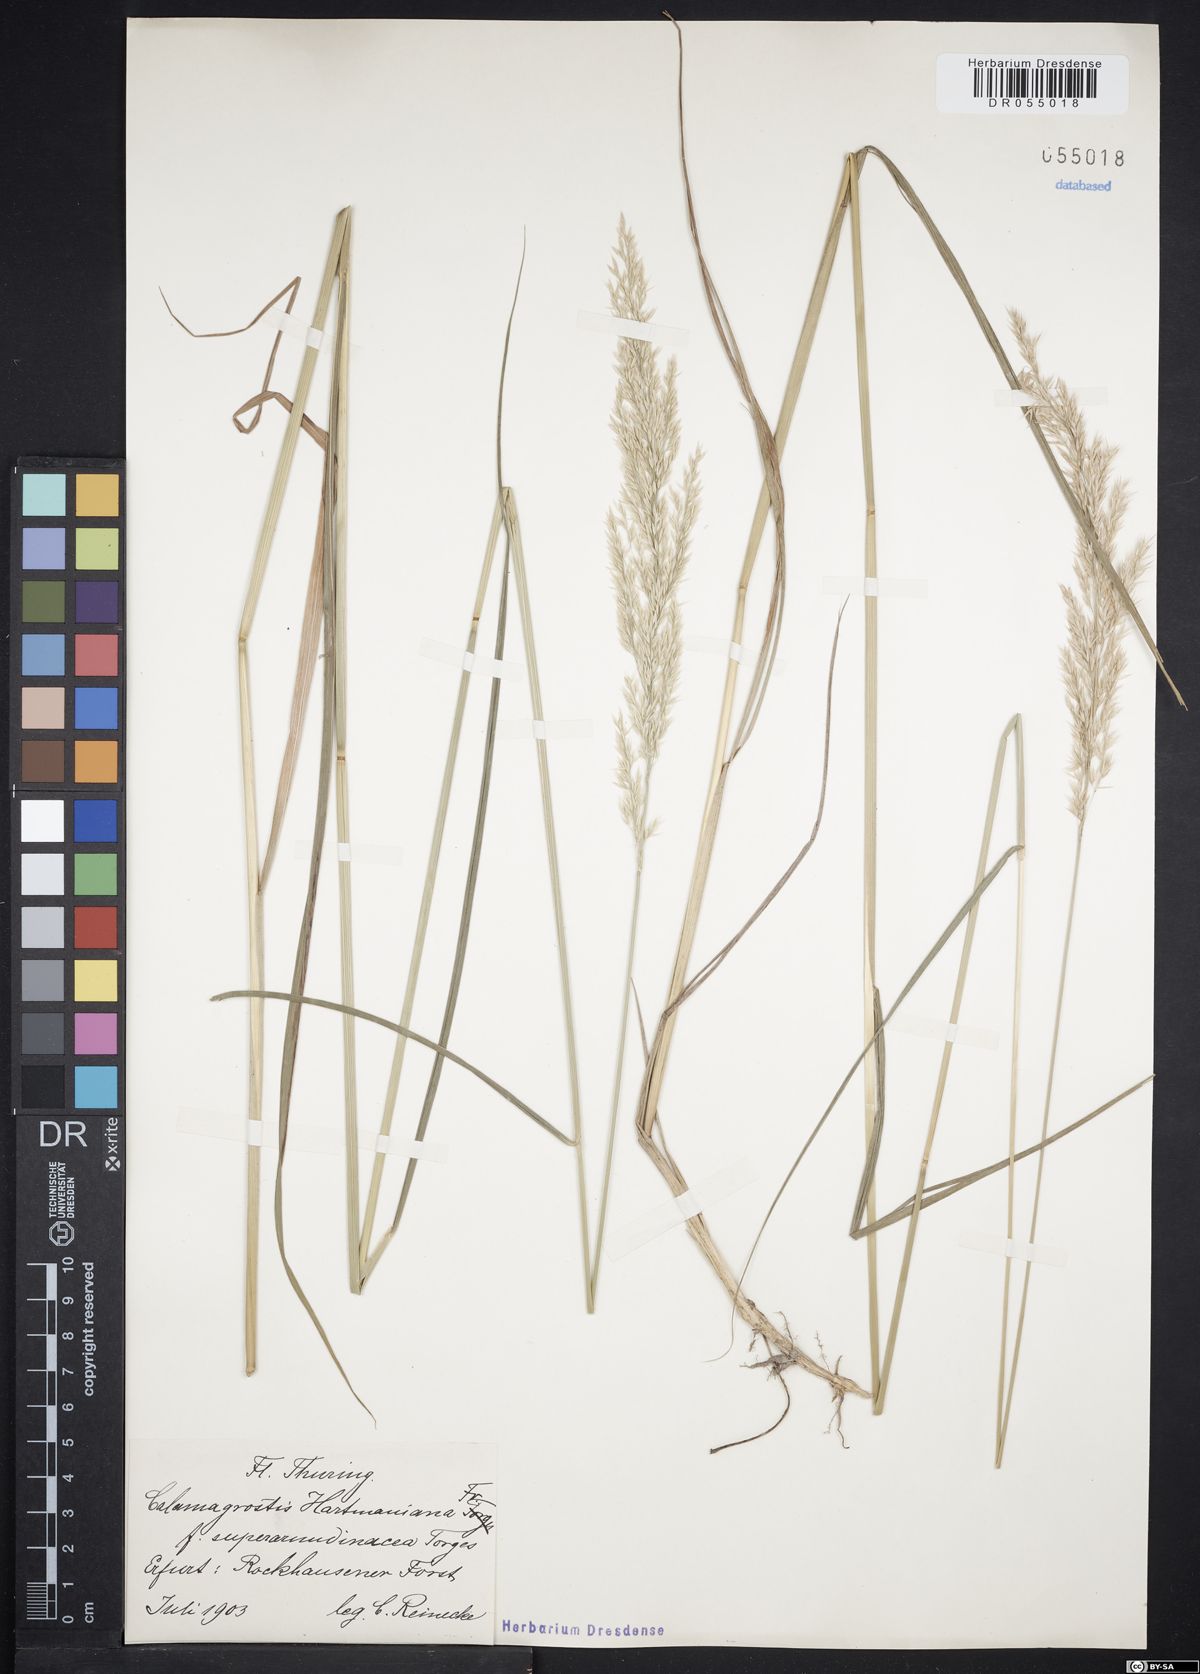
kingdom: Plantae
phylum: Tracheophyta
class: Liliopsida
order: Poales
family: Poaceae
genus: Calamagrostis
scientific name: Calamagrostis hartmaniana
